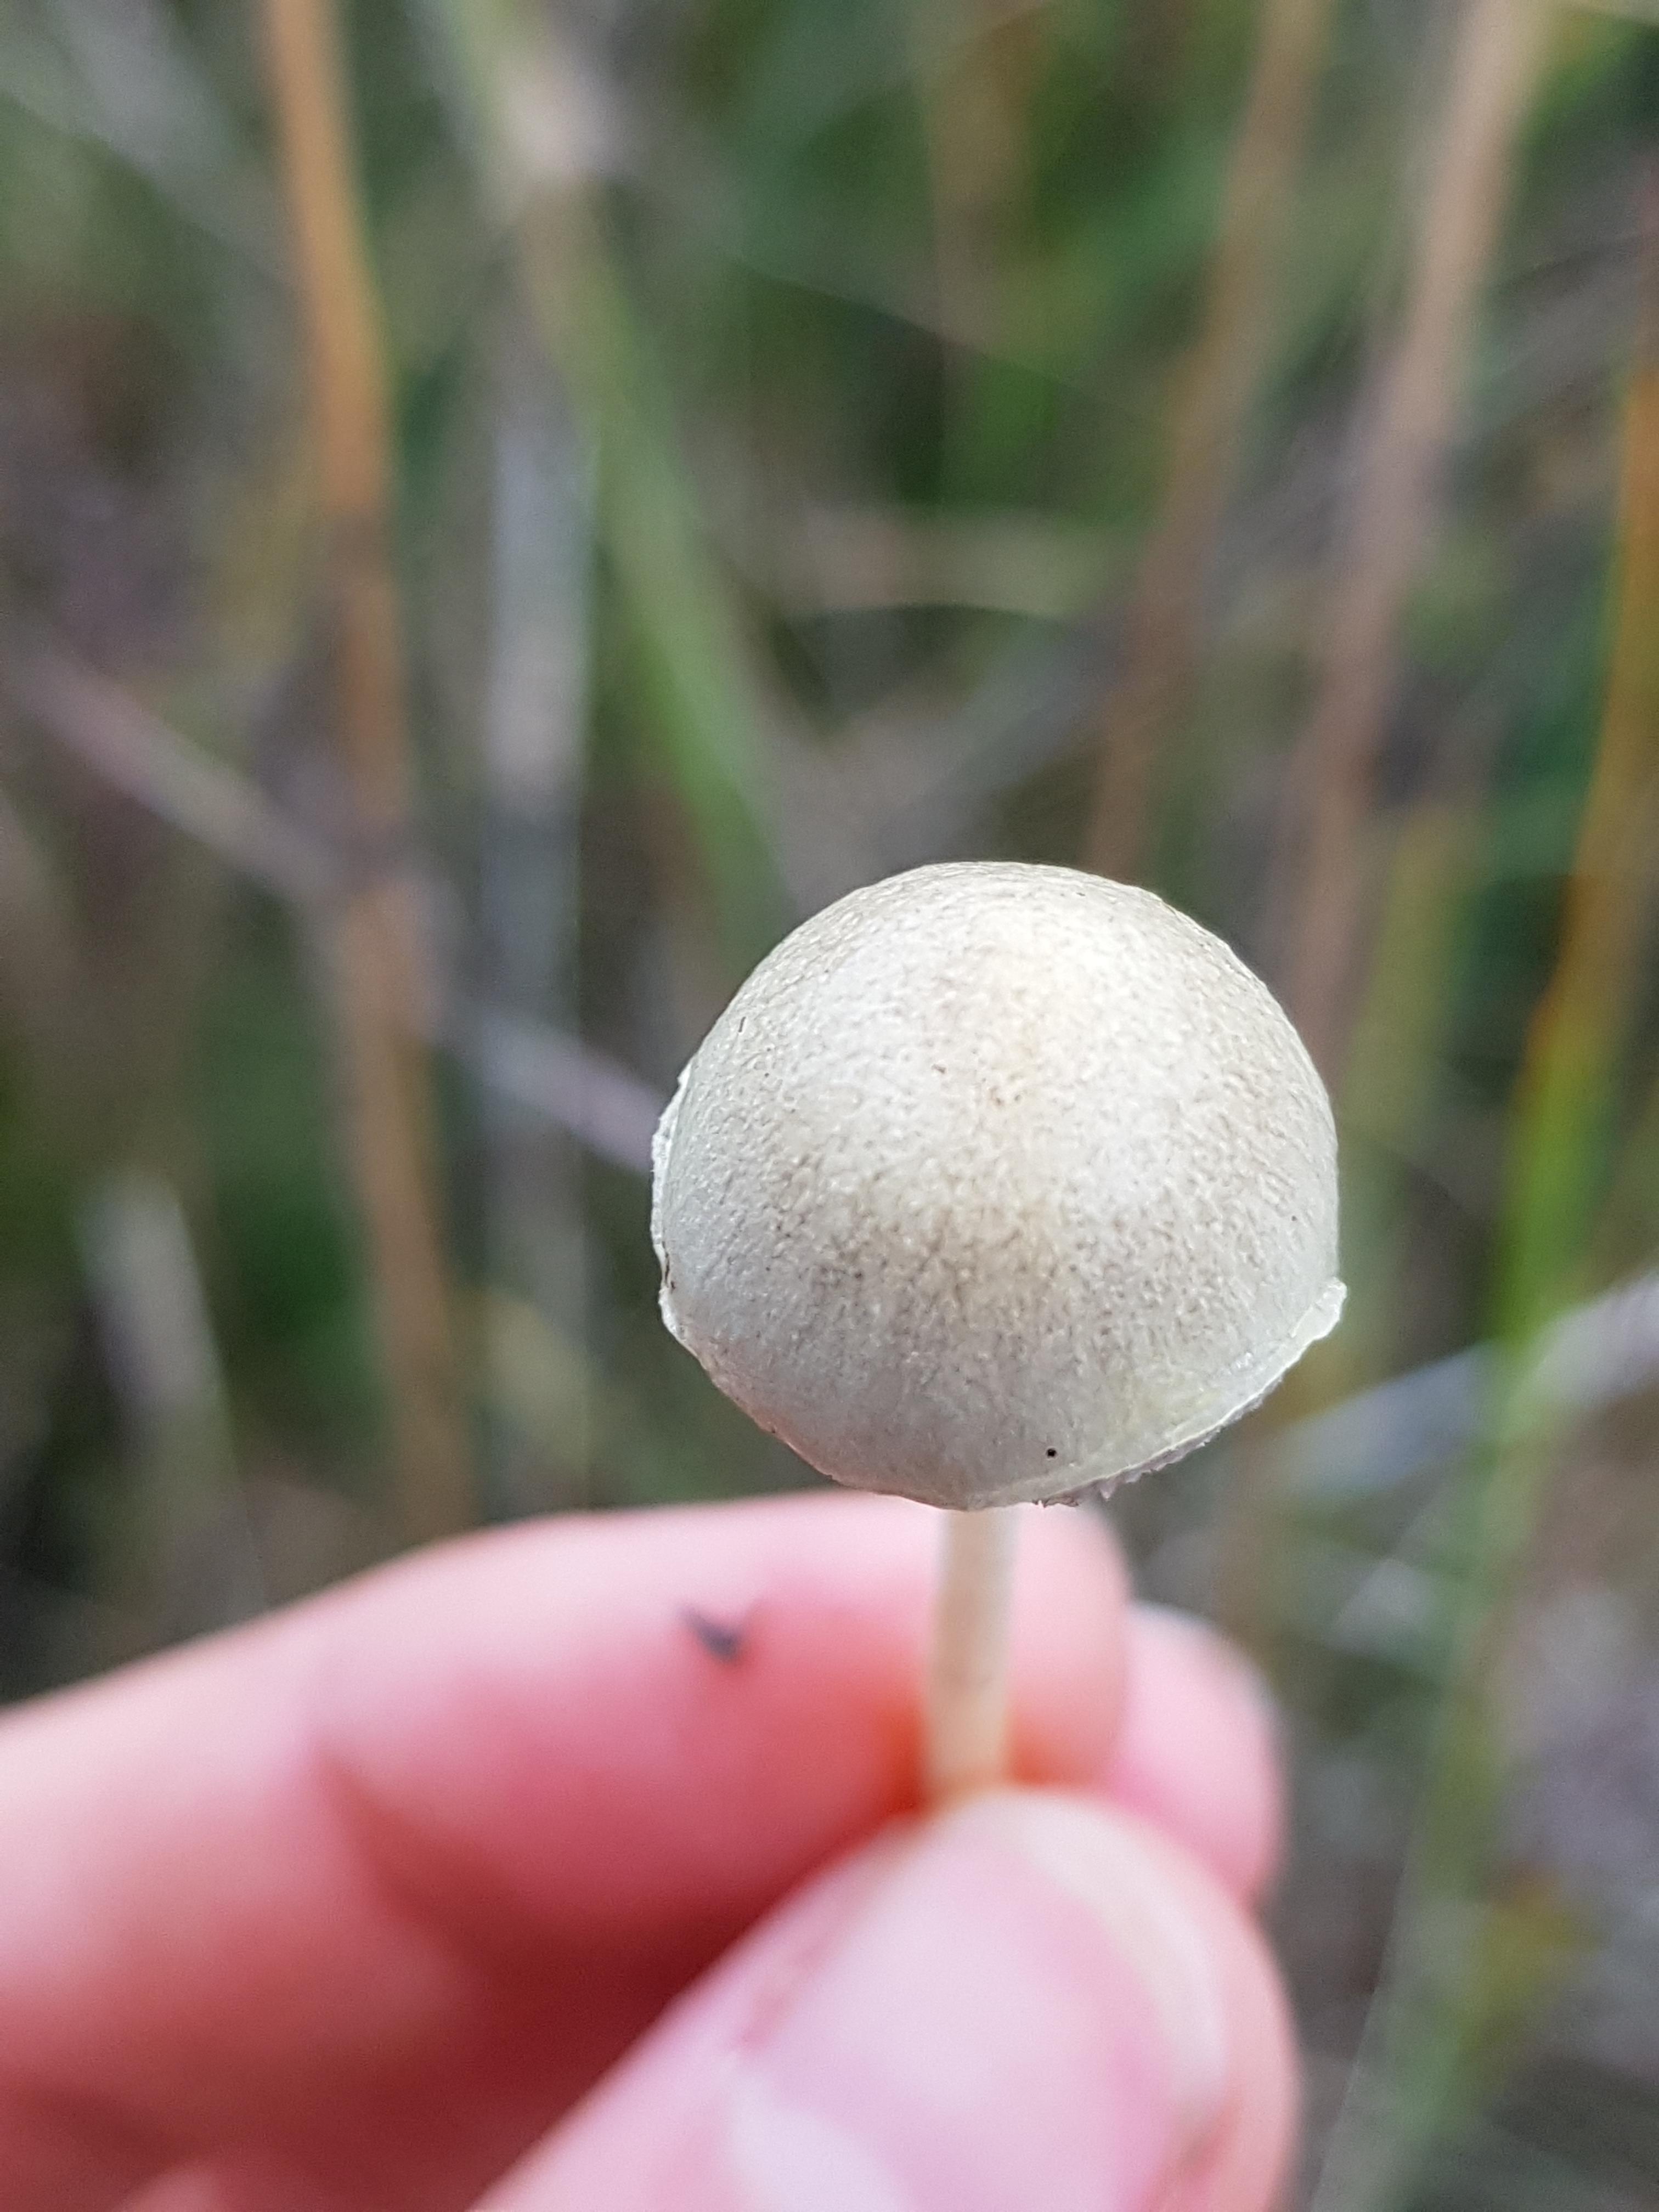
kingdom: Fungi
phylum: Basidiomycota
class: Agaricomycetes
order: Agaricales
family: Strophariaceae
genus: Protostropharia
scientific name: Protostropharia semiglobata
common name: halvkugleformet bredblad
